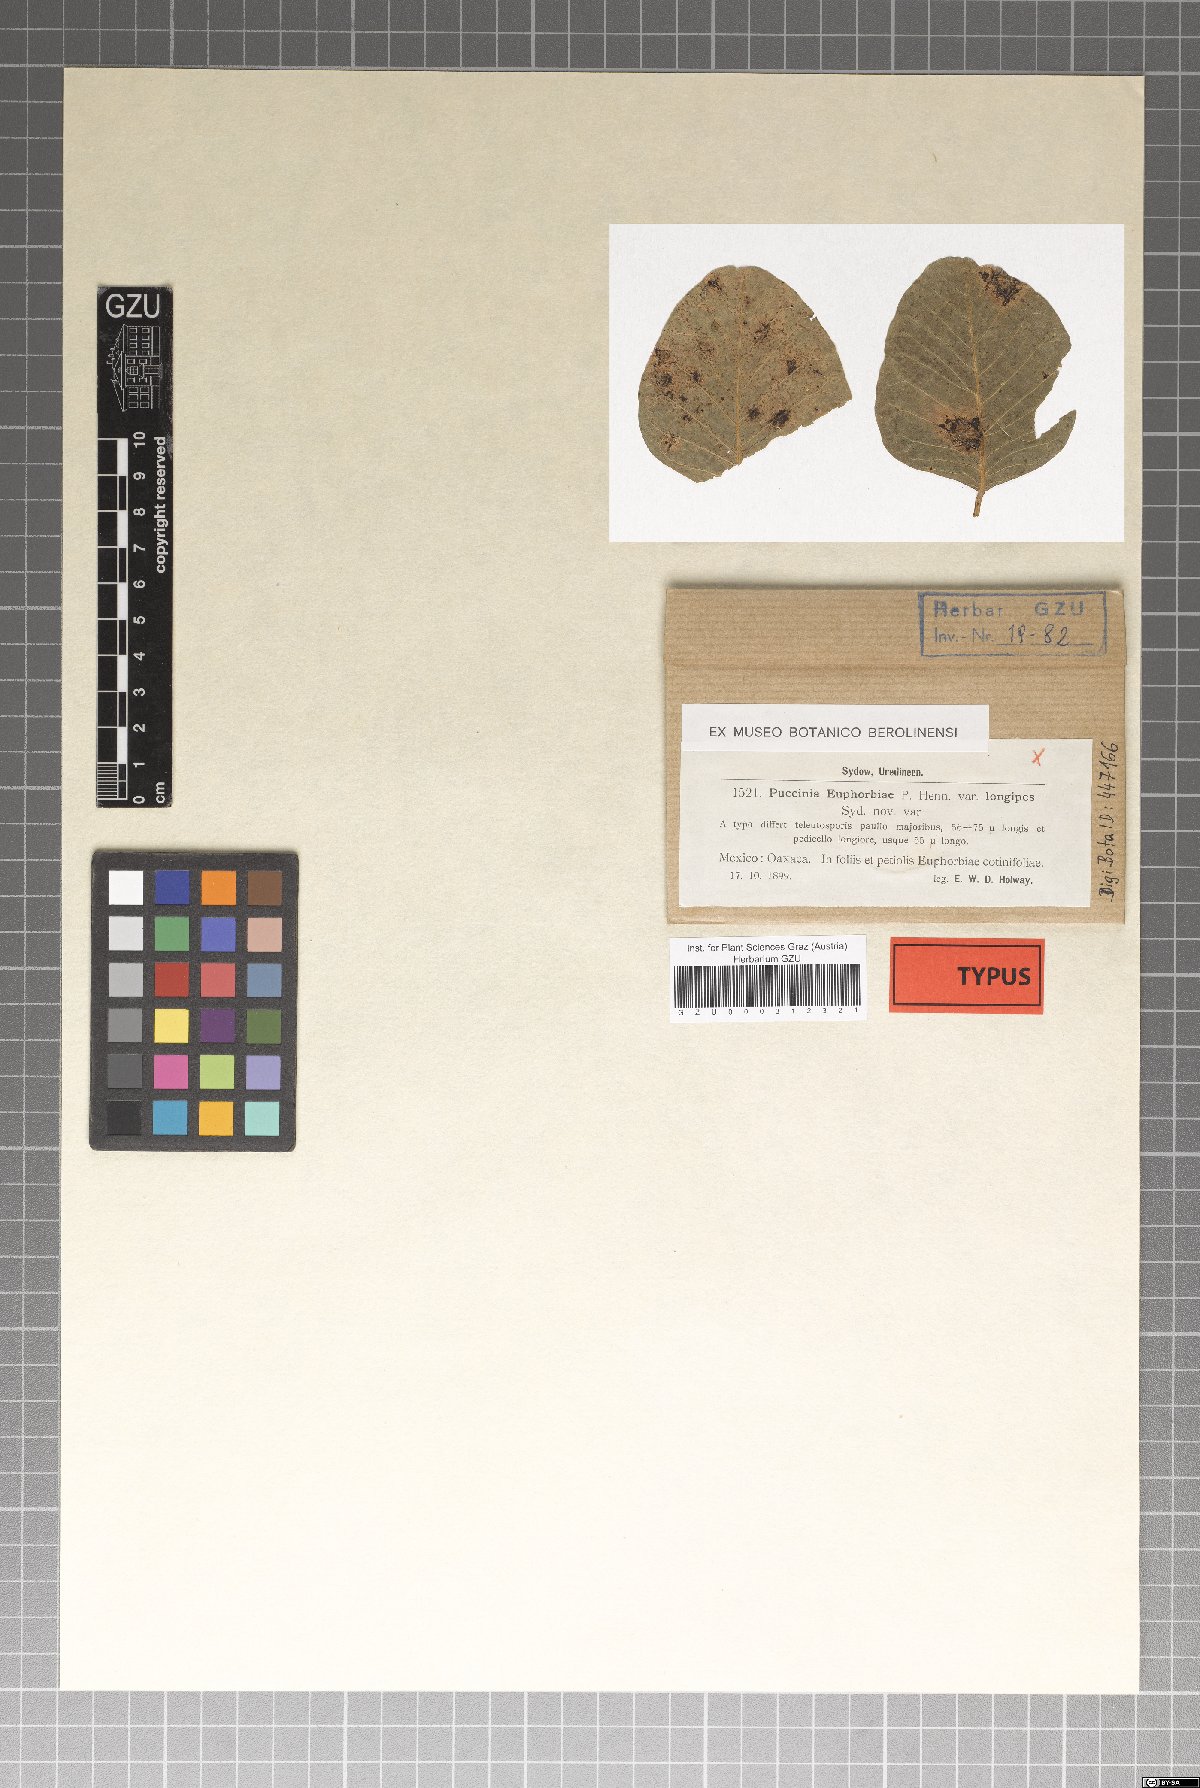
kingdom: Fungi
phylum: Basidiomycota
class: Pucciniomycetes
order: Pucciniales
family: Pucciniaceae
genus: Puccinia
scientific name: Puccinia euphorbiae
